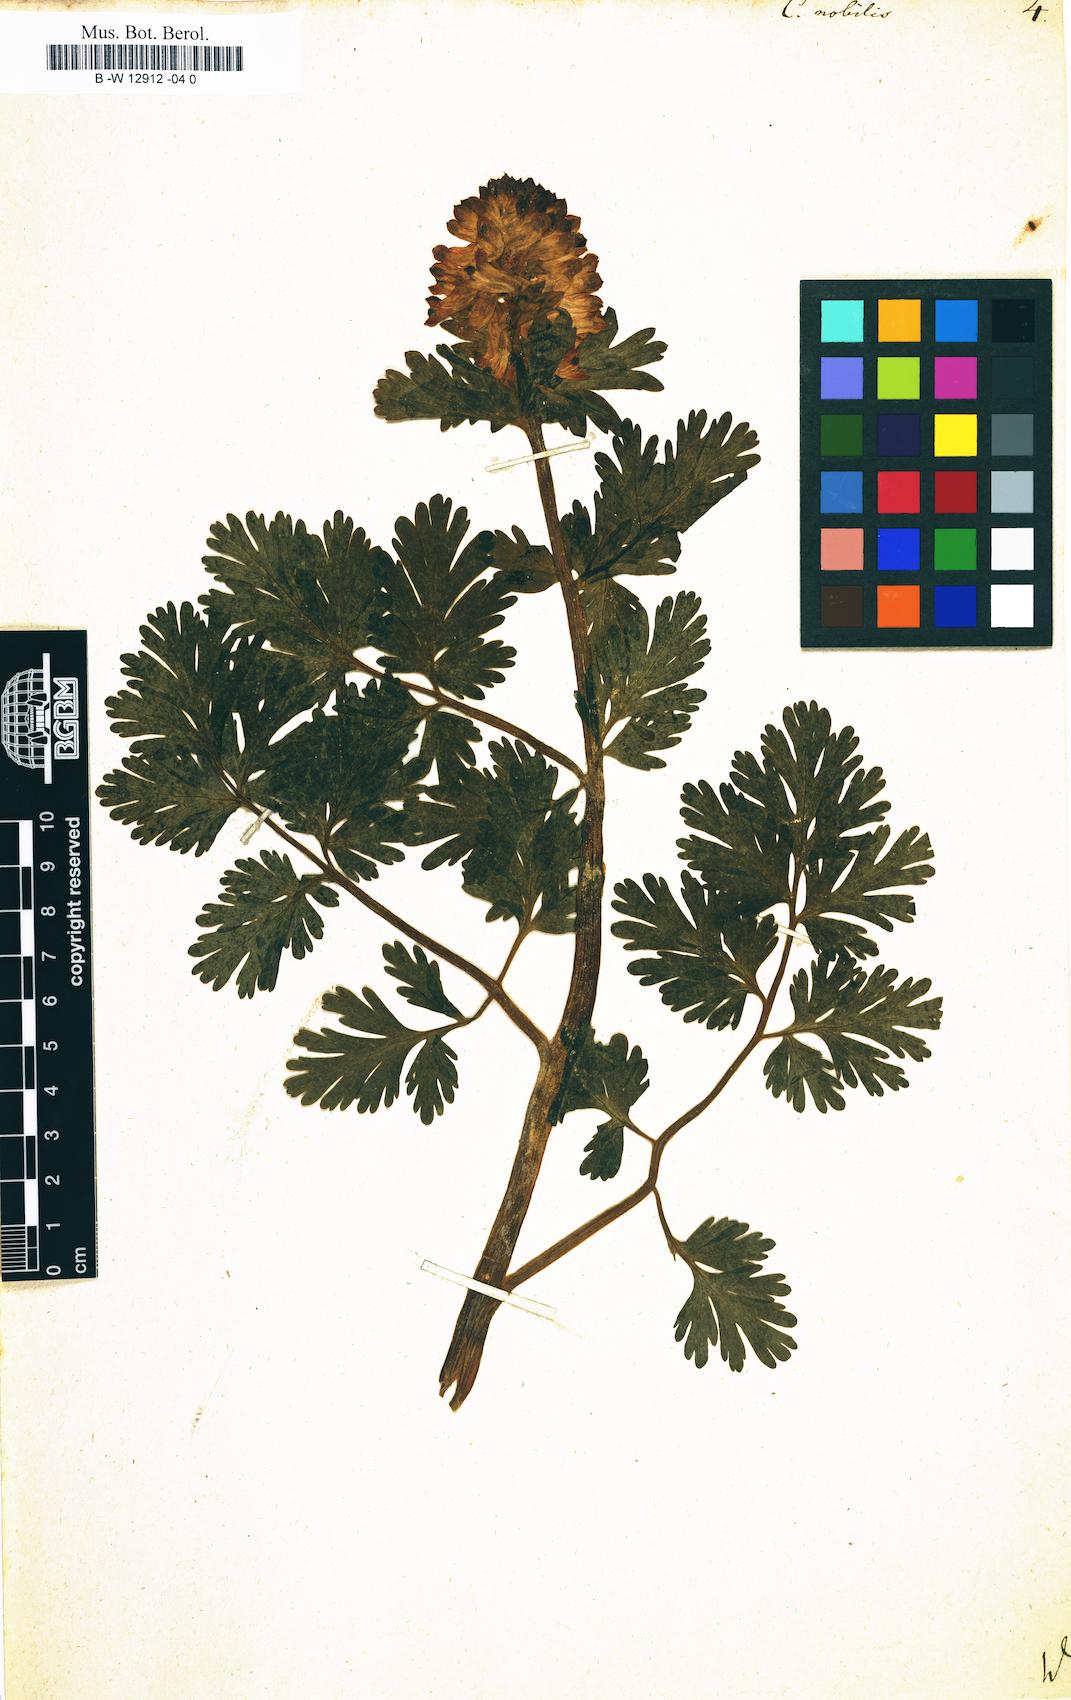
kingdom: Plantae
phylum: Tracheophyta
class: Magnoliopsida
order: Ranunculales
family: Papaveraceae
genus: Corydalis
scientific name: Corydalis nobilis
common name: Siberian corydalis
